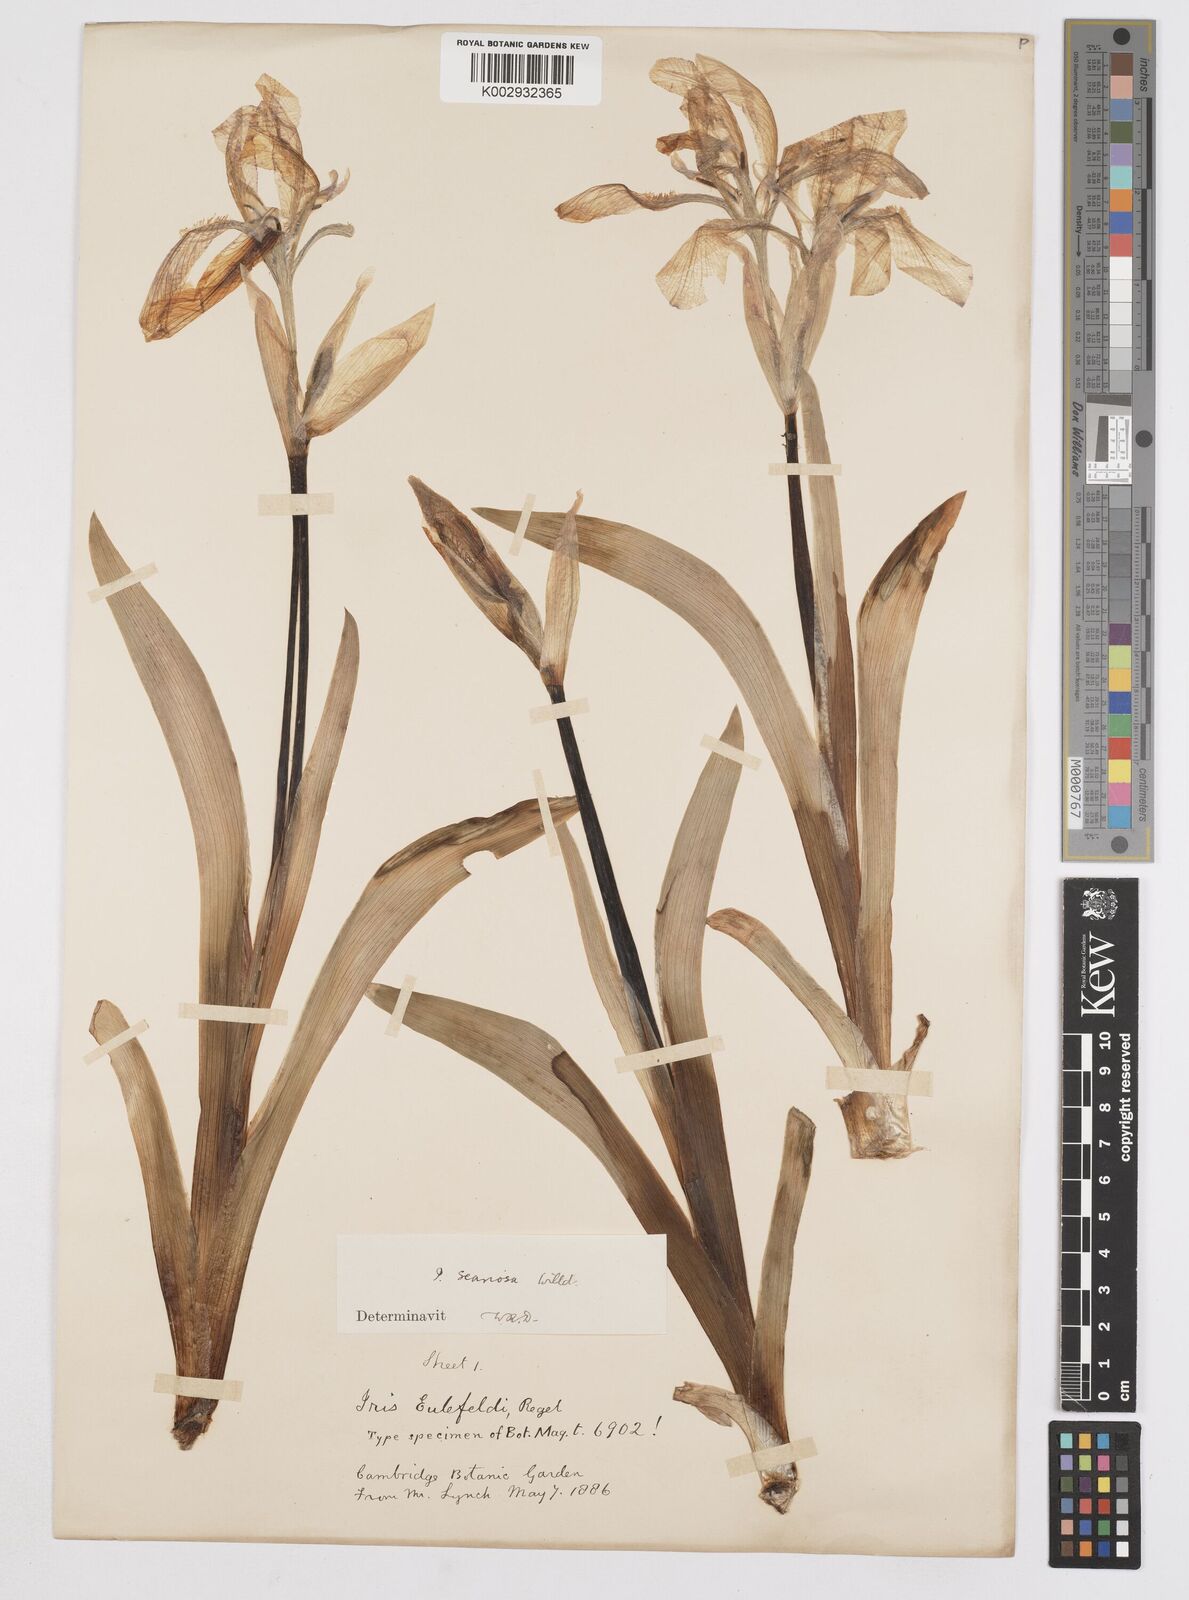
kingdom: Plantae
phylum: Tracheophyta
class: Liliopsida
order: Asparagales
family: Iridaceae
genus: Iris
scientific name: Iris scariosa
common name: Membrane-bract iris
